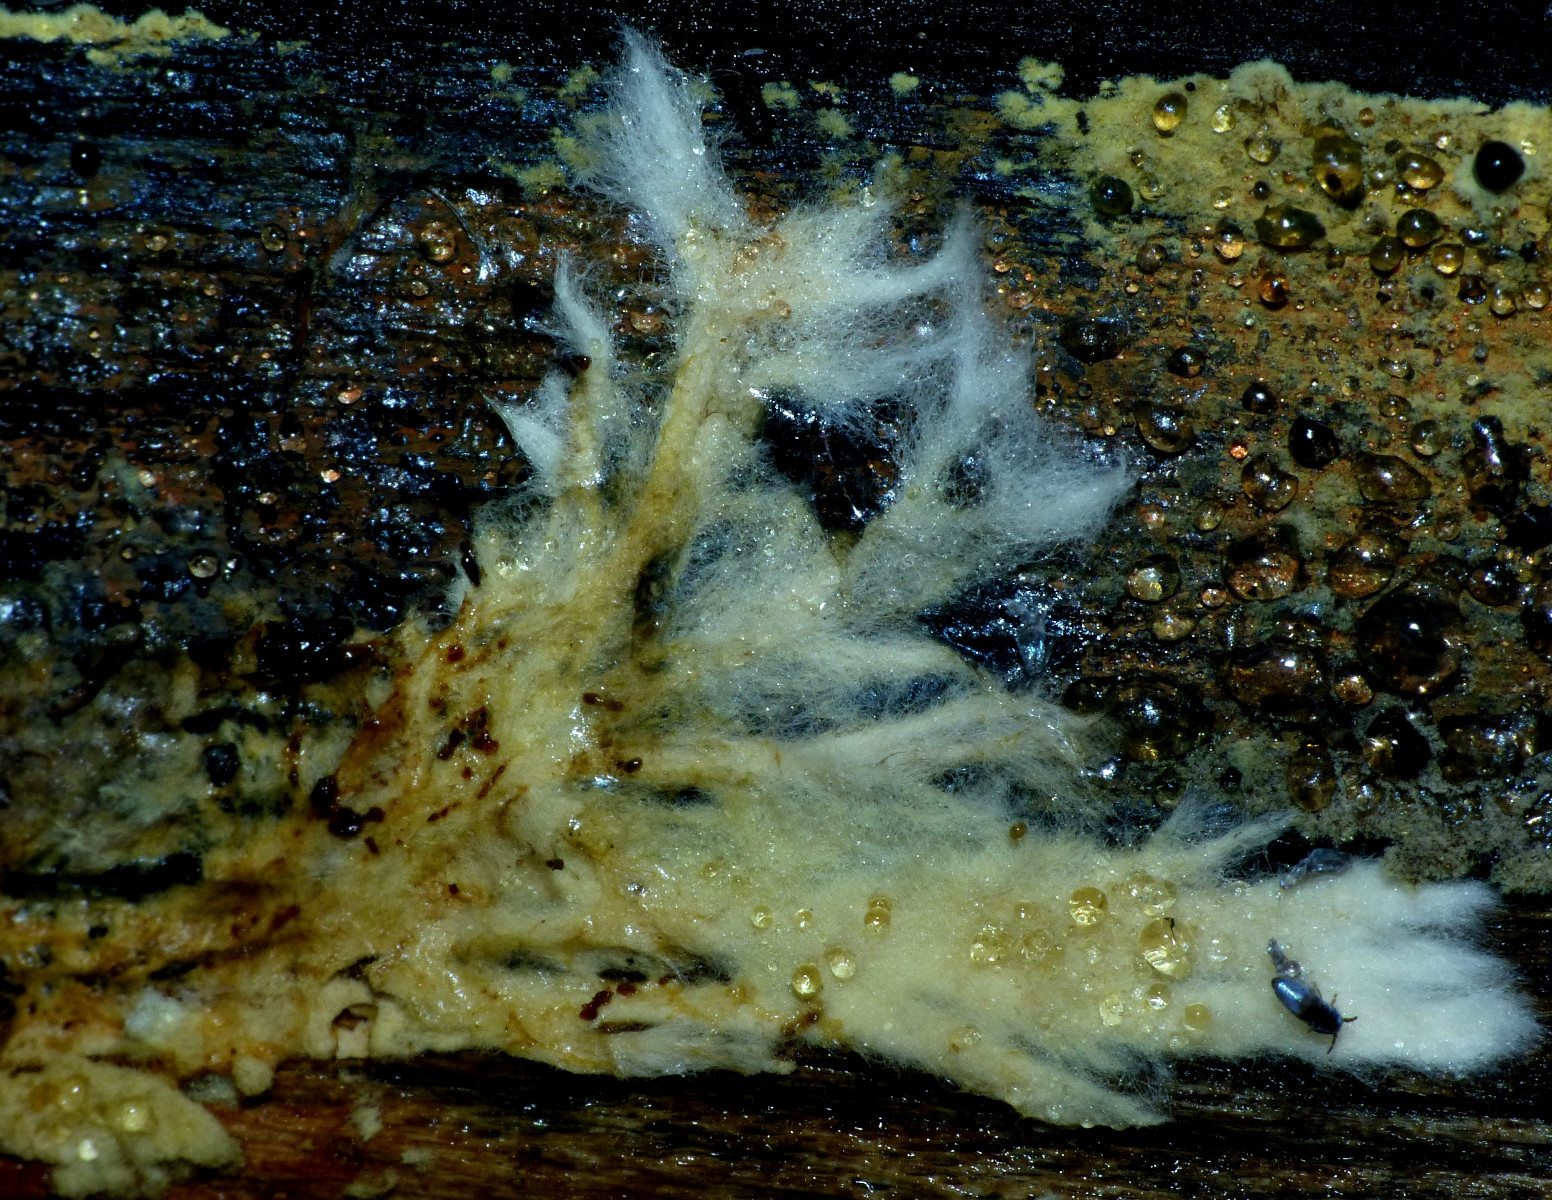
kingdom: Fungi
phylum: Basidiomycota
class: Agaricomycetes
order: Russulales
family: Xenasmataceae
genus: Xenasmatella
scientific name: Xenasmatella vaga
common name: svovl-strenghinde
